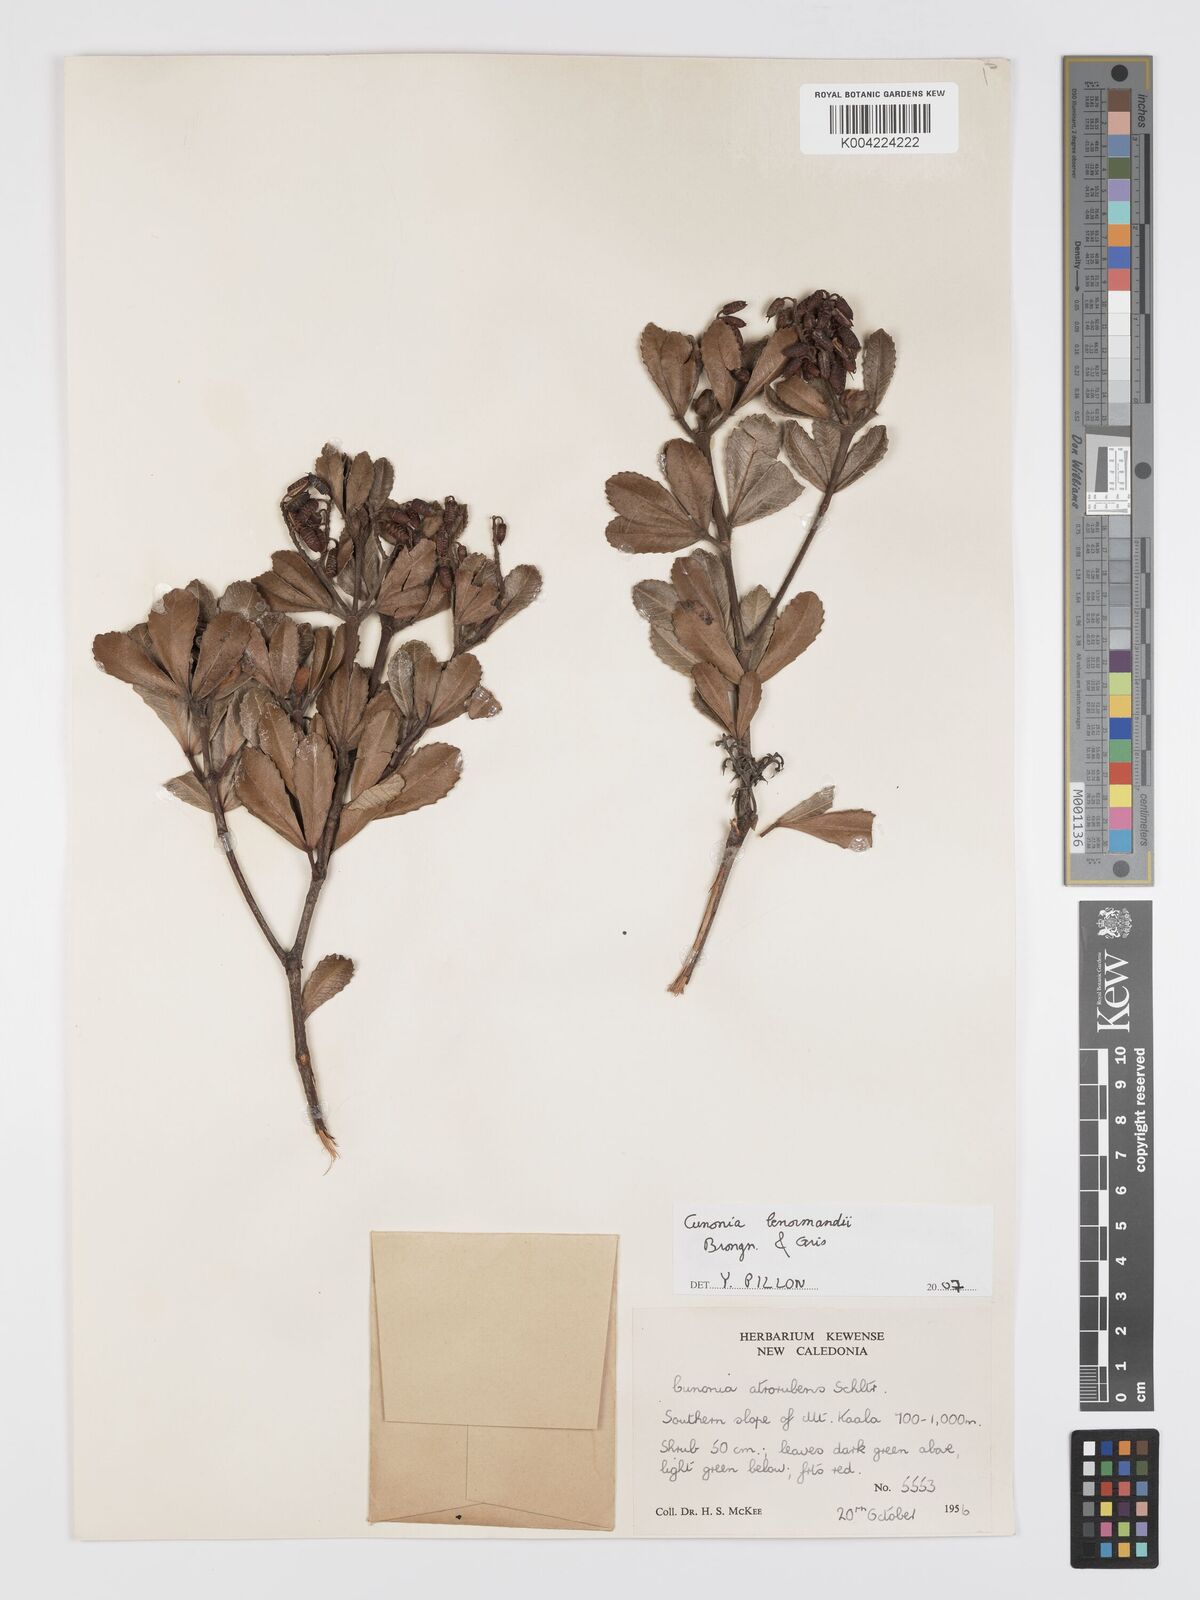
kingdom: Plantae
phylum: Tracheophyta
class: Magnoliopsida
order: Oxalidales
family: Cunoniaceae
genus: Cunonia
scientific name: Cunonia lenormandii
